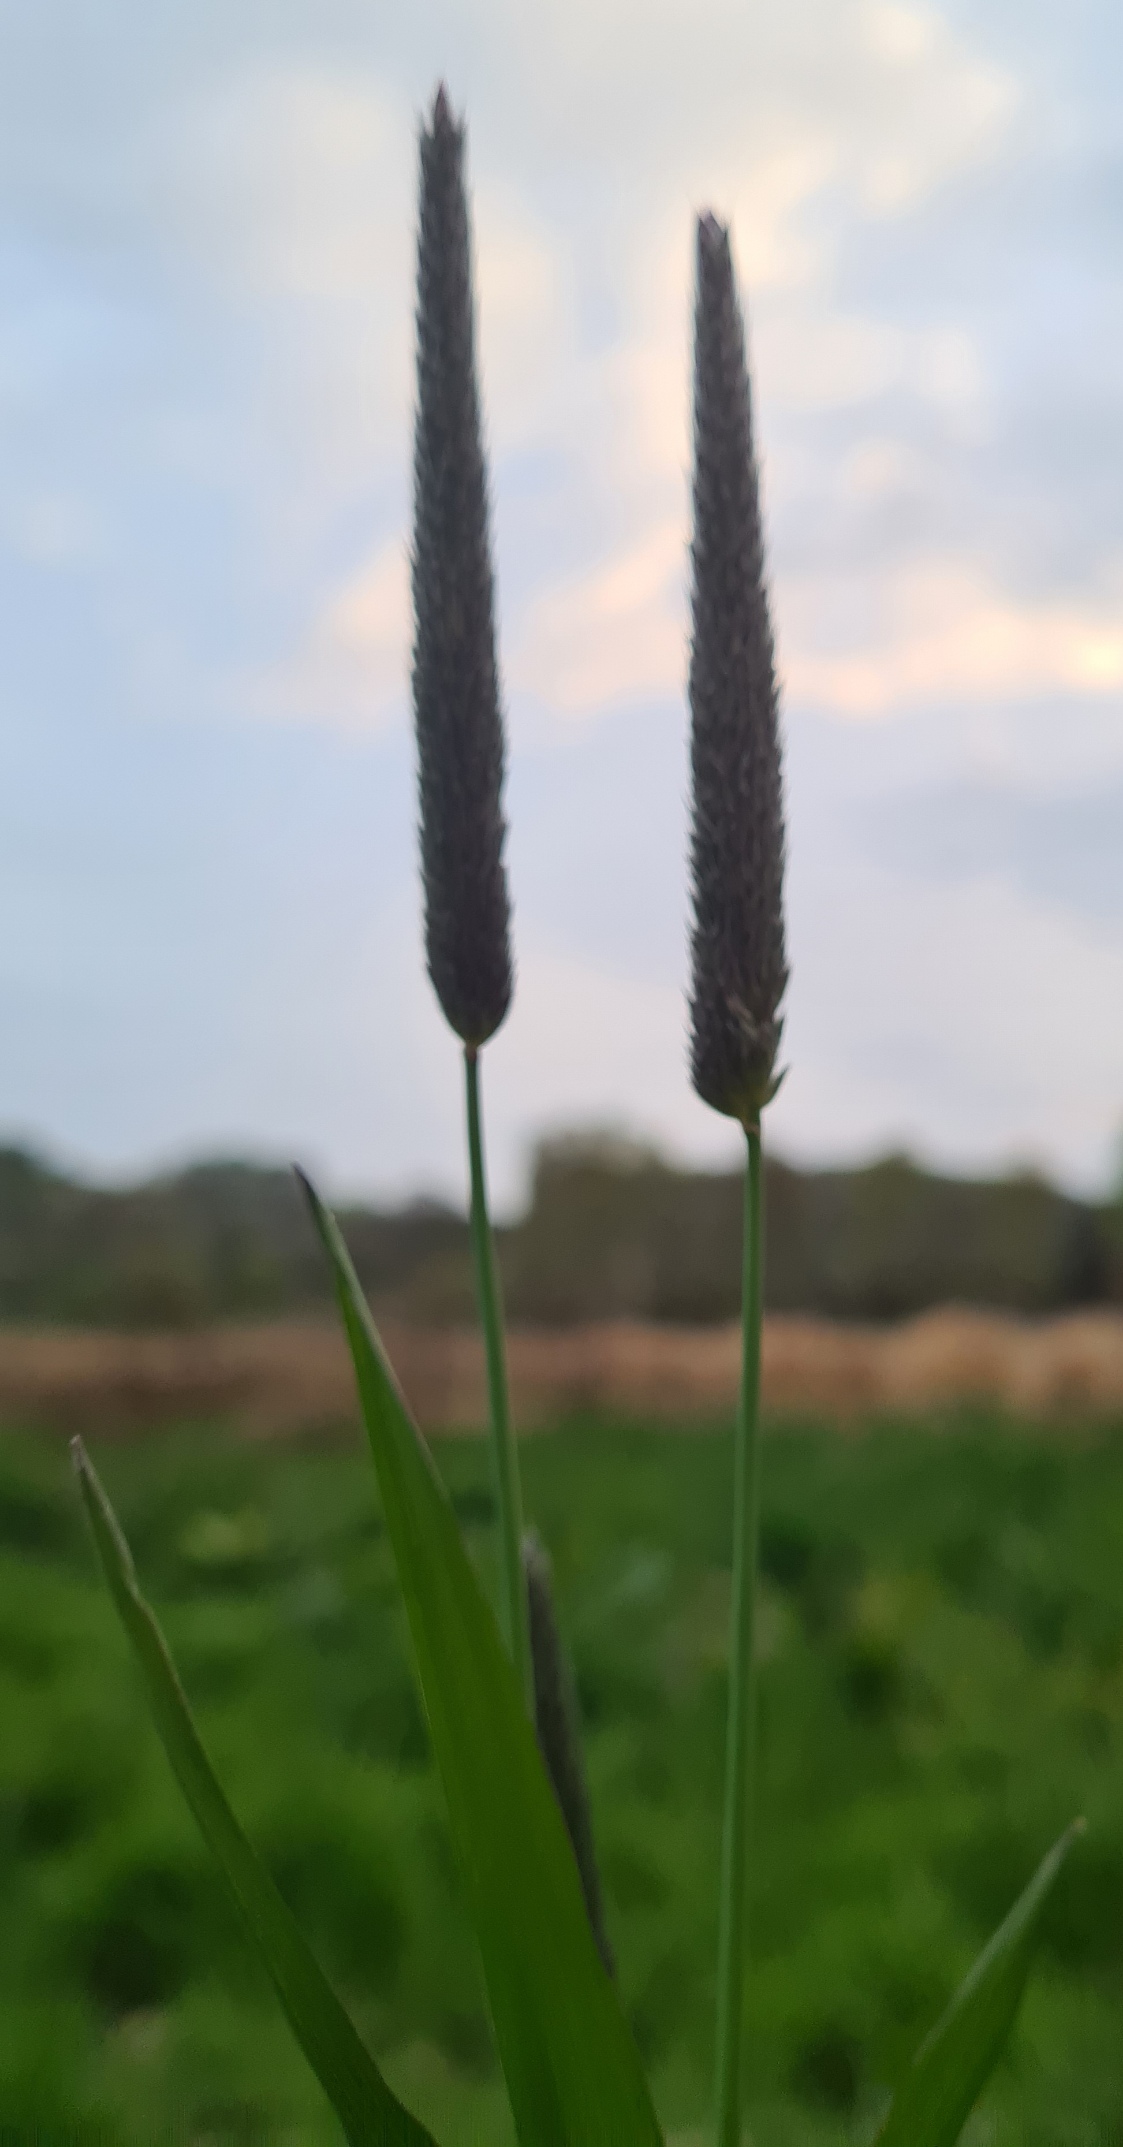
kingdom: Plantae
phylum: Tracheophyta
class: Liliopsida
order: Poales
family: Poaceae
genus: Alopecurus
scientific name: Alopecurus pratensis
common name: Eng-rævehale
